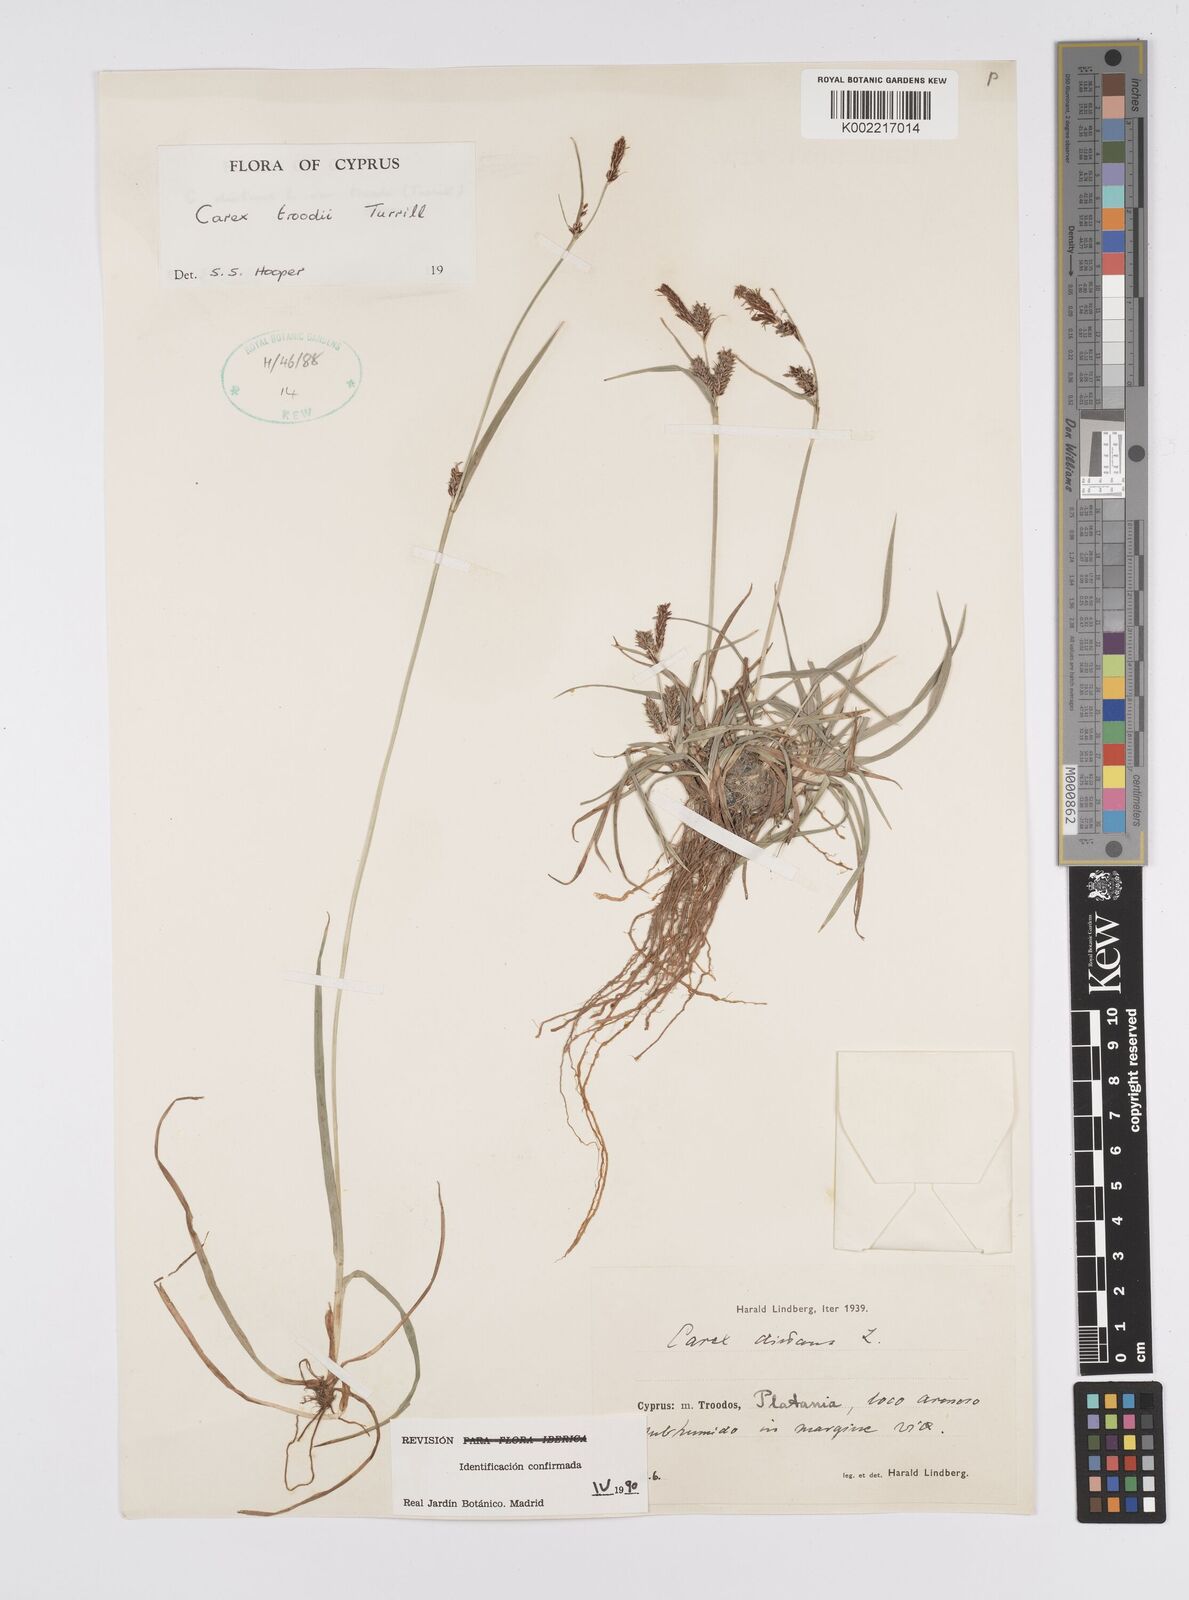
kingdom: Plantae
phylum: Tracheophyta
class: Liliopsida
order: Poales
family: Cyperaceae
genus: Carex
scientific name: Carex troodi
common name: Troodos mount sedge
